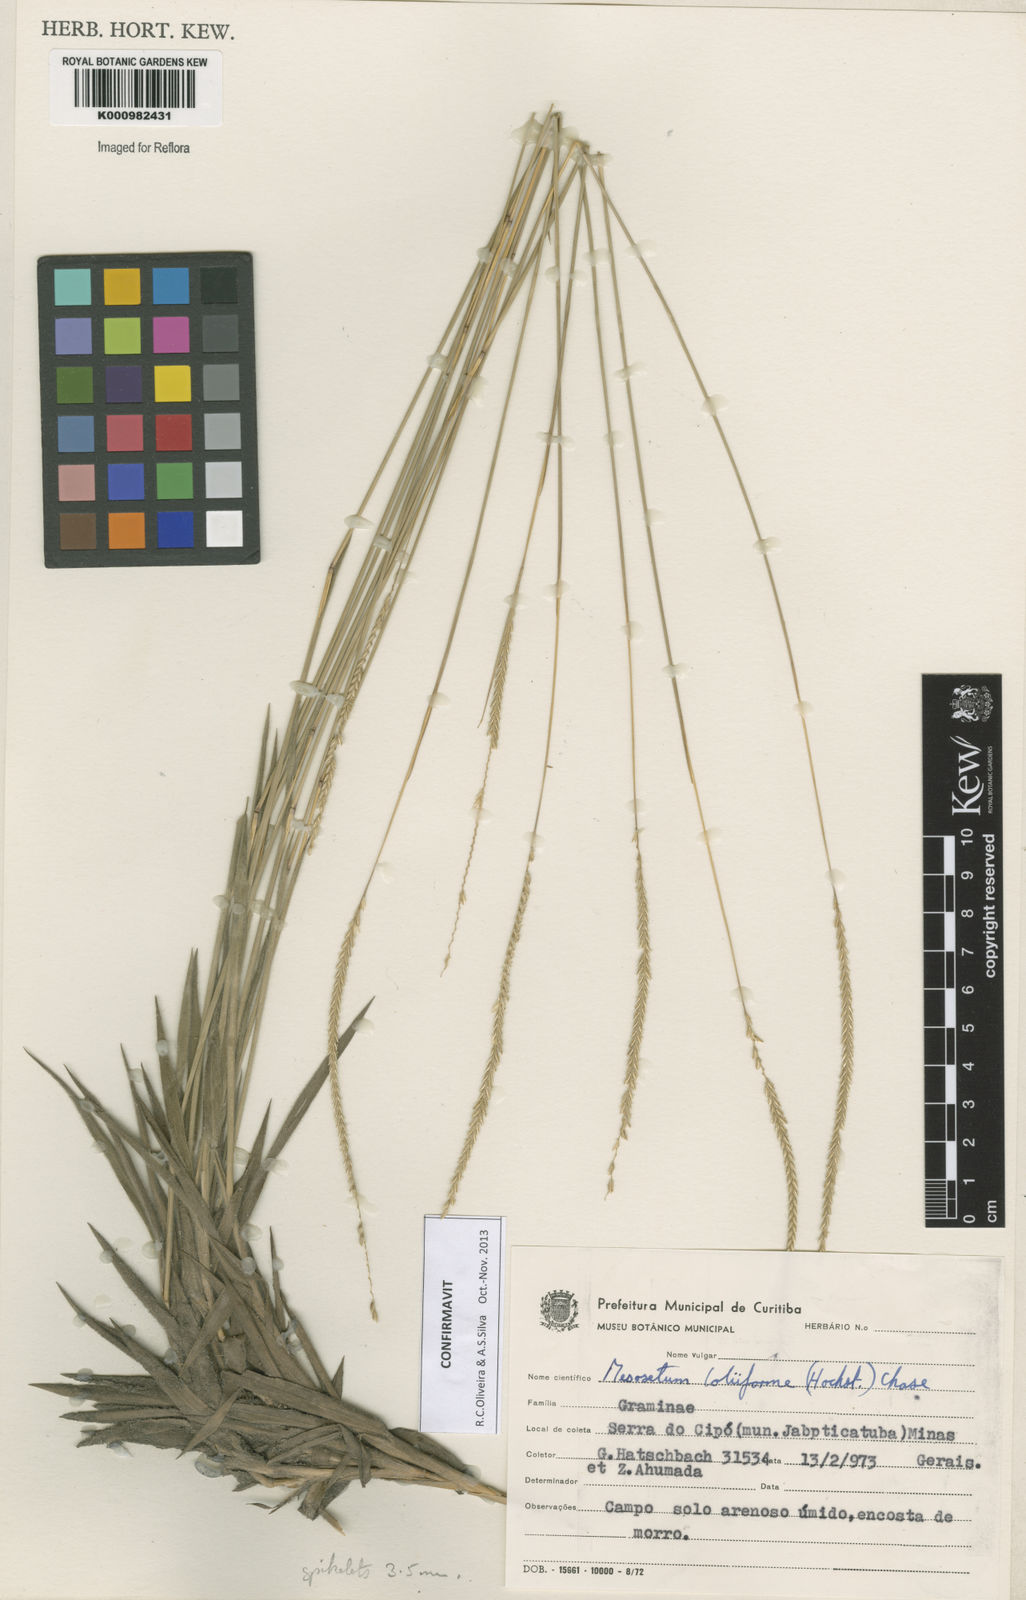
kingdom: Plantae
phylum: Tracheophyta
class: Liliopsida
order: Poales
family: Poaceae
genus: Mesosetum
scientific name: Mesosetum
